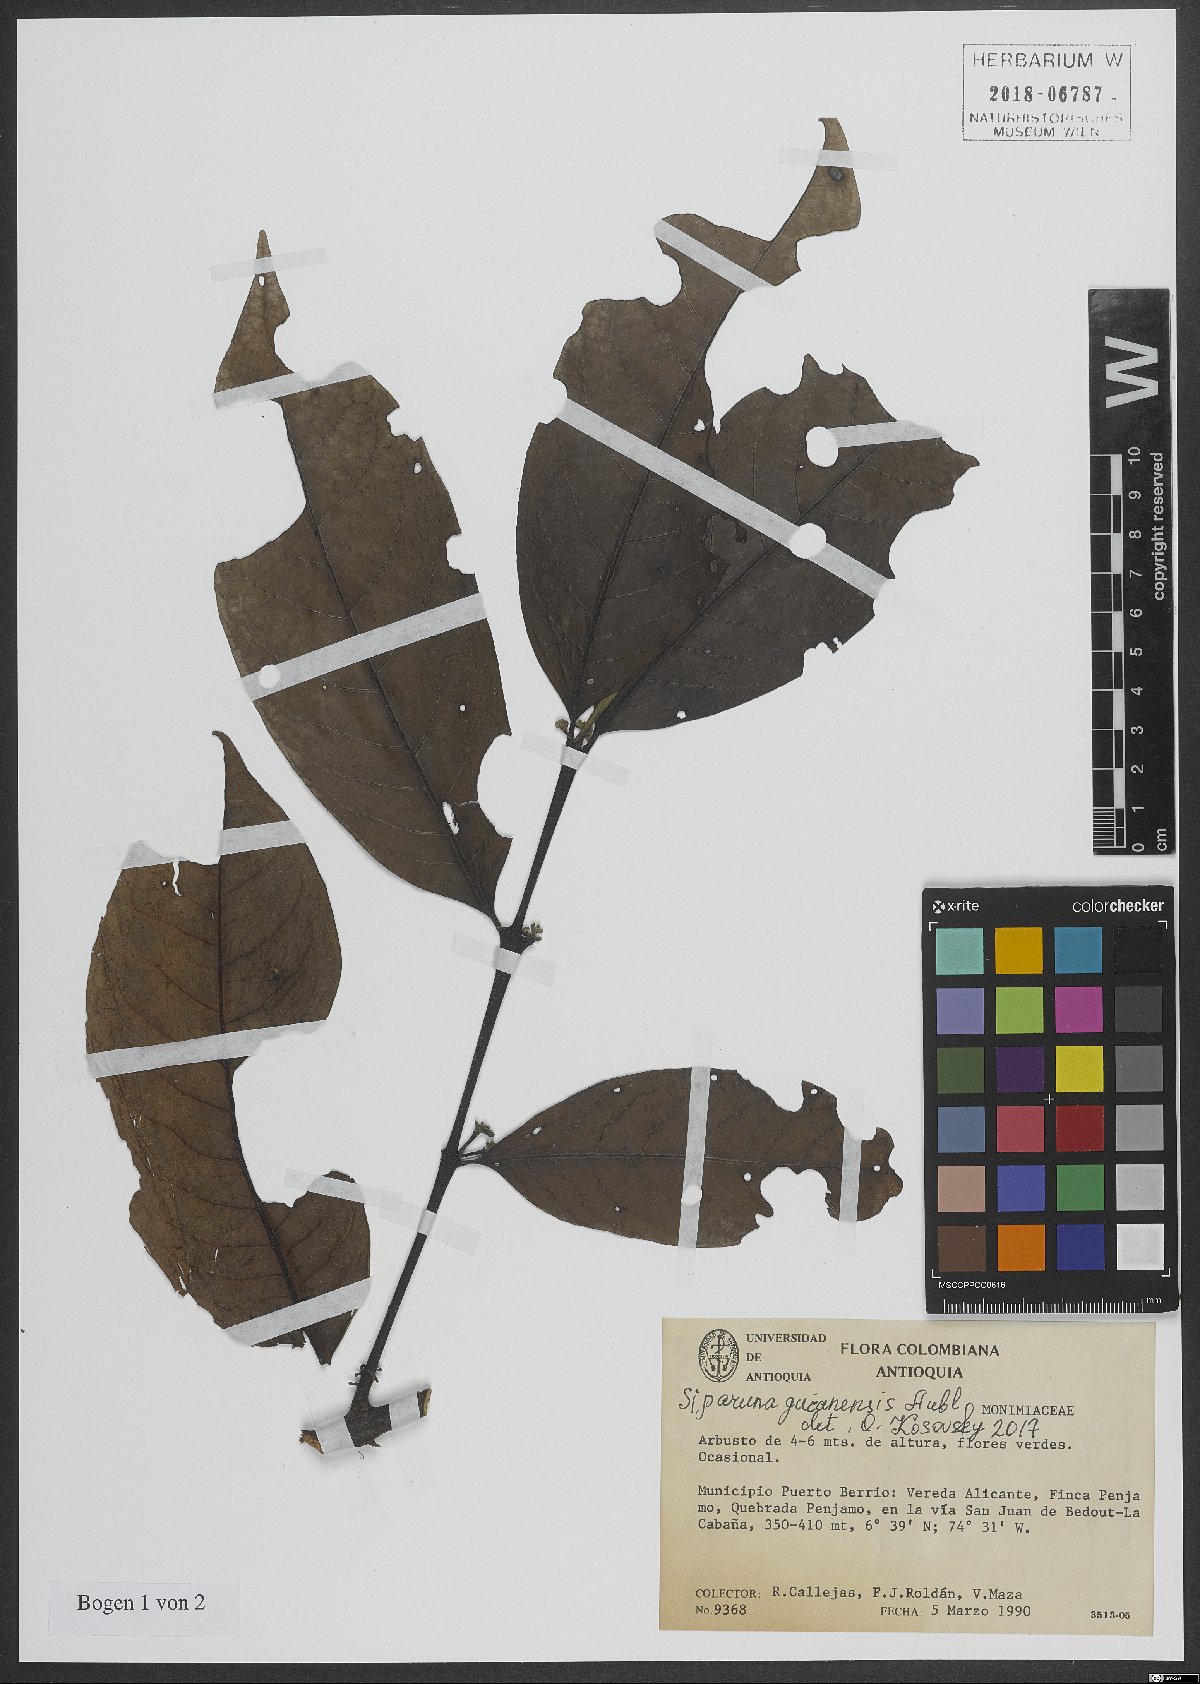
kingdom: Plantae
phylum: Tracheophyta
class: Magnoliopsida
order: Laurales
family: Siparunaceae
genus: Siparuna
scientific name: Siparuna guianensis
